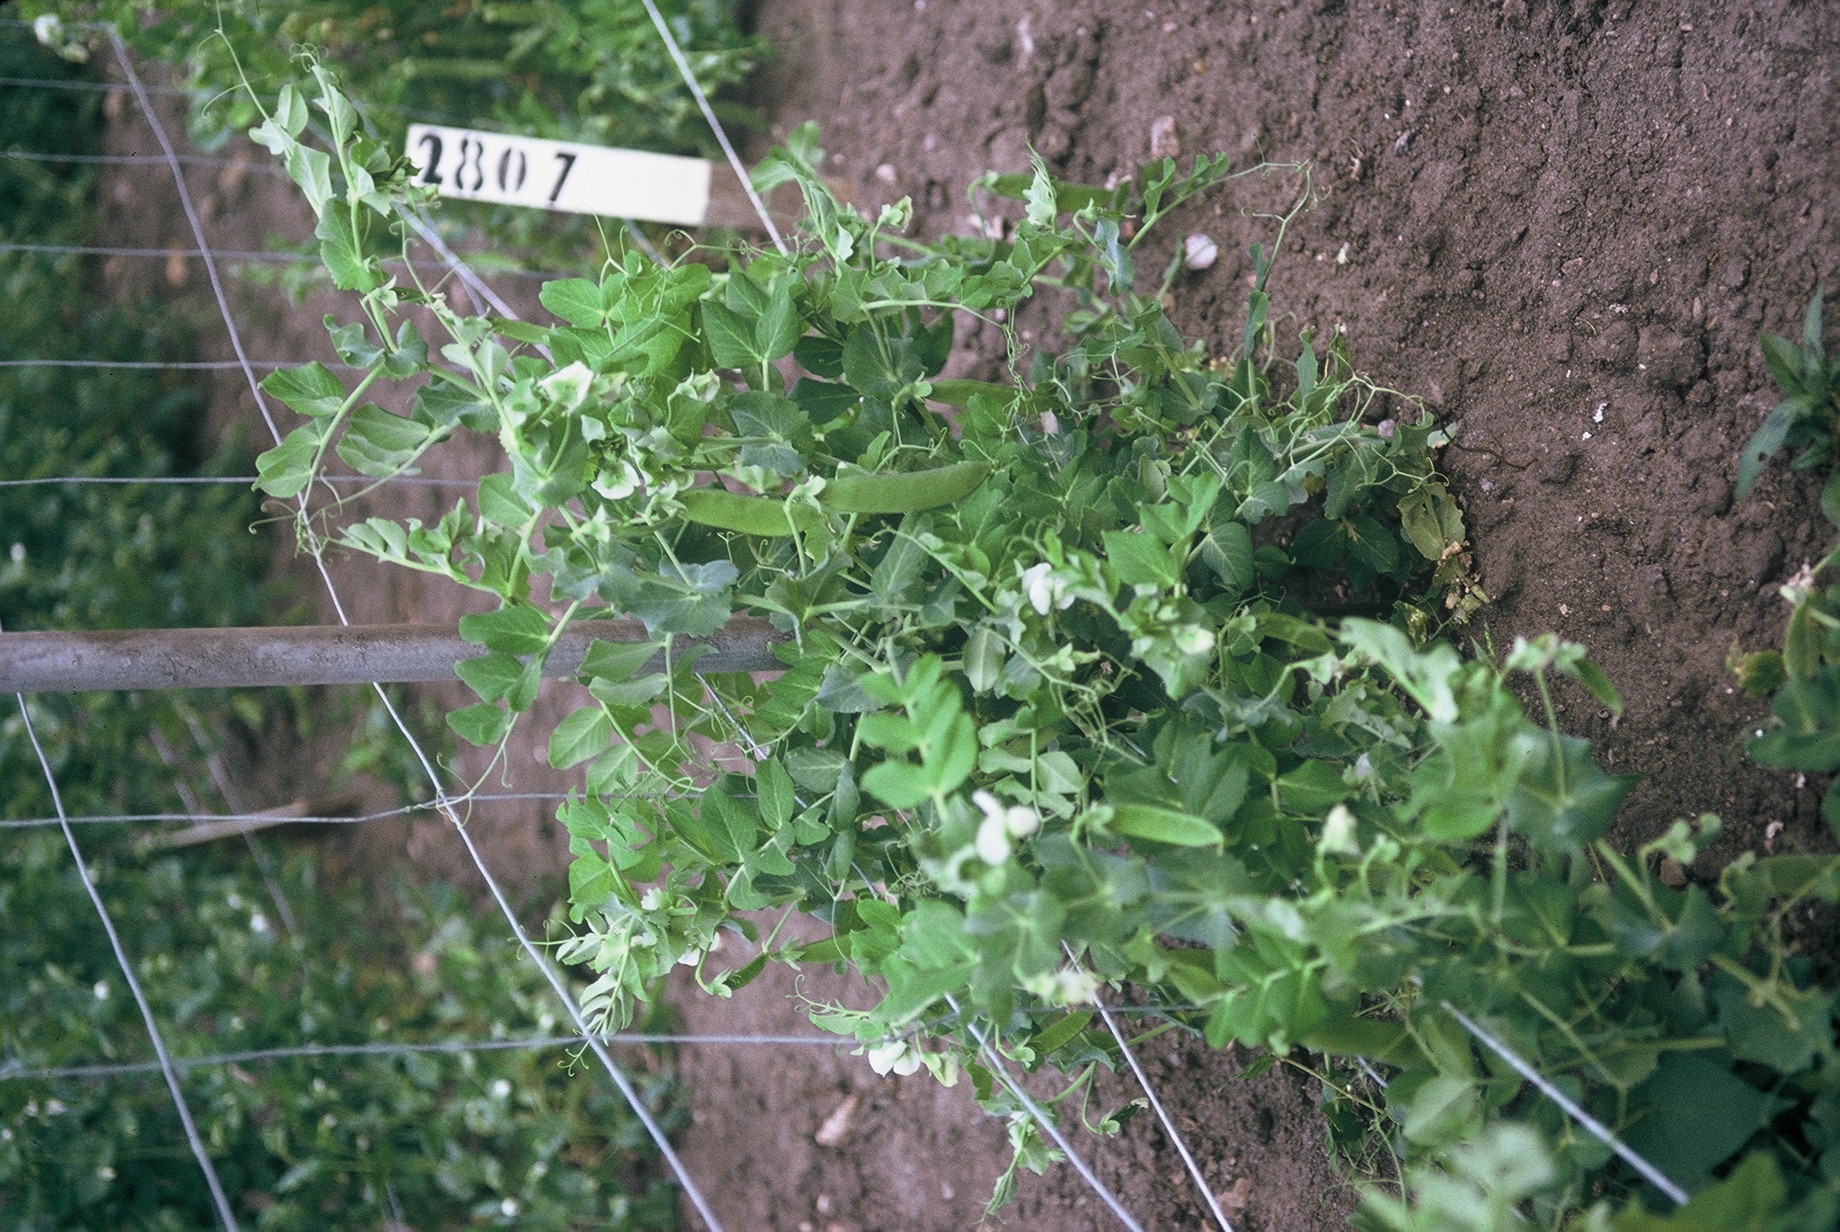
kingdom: Plantae
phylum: Tracheophyta
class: Magnoliopsida
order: Fabales
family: Fabaceae
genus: Lathyrus
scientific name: Lathyrus oleraceus
